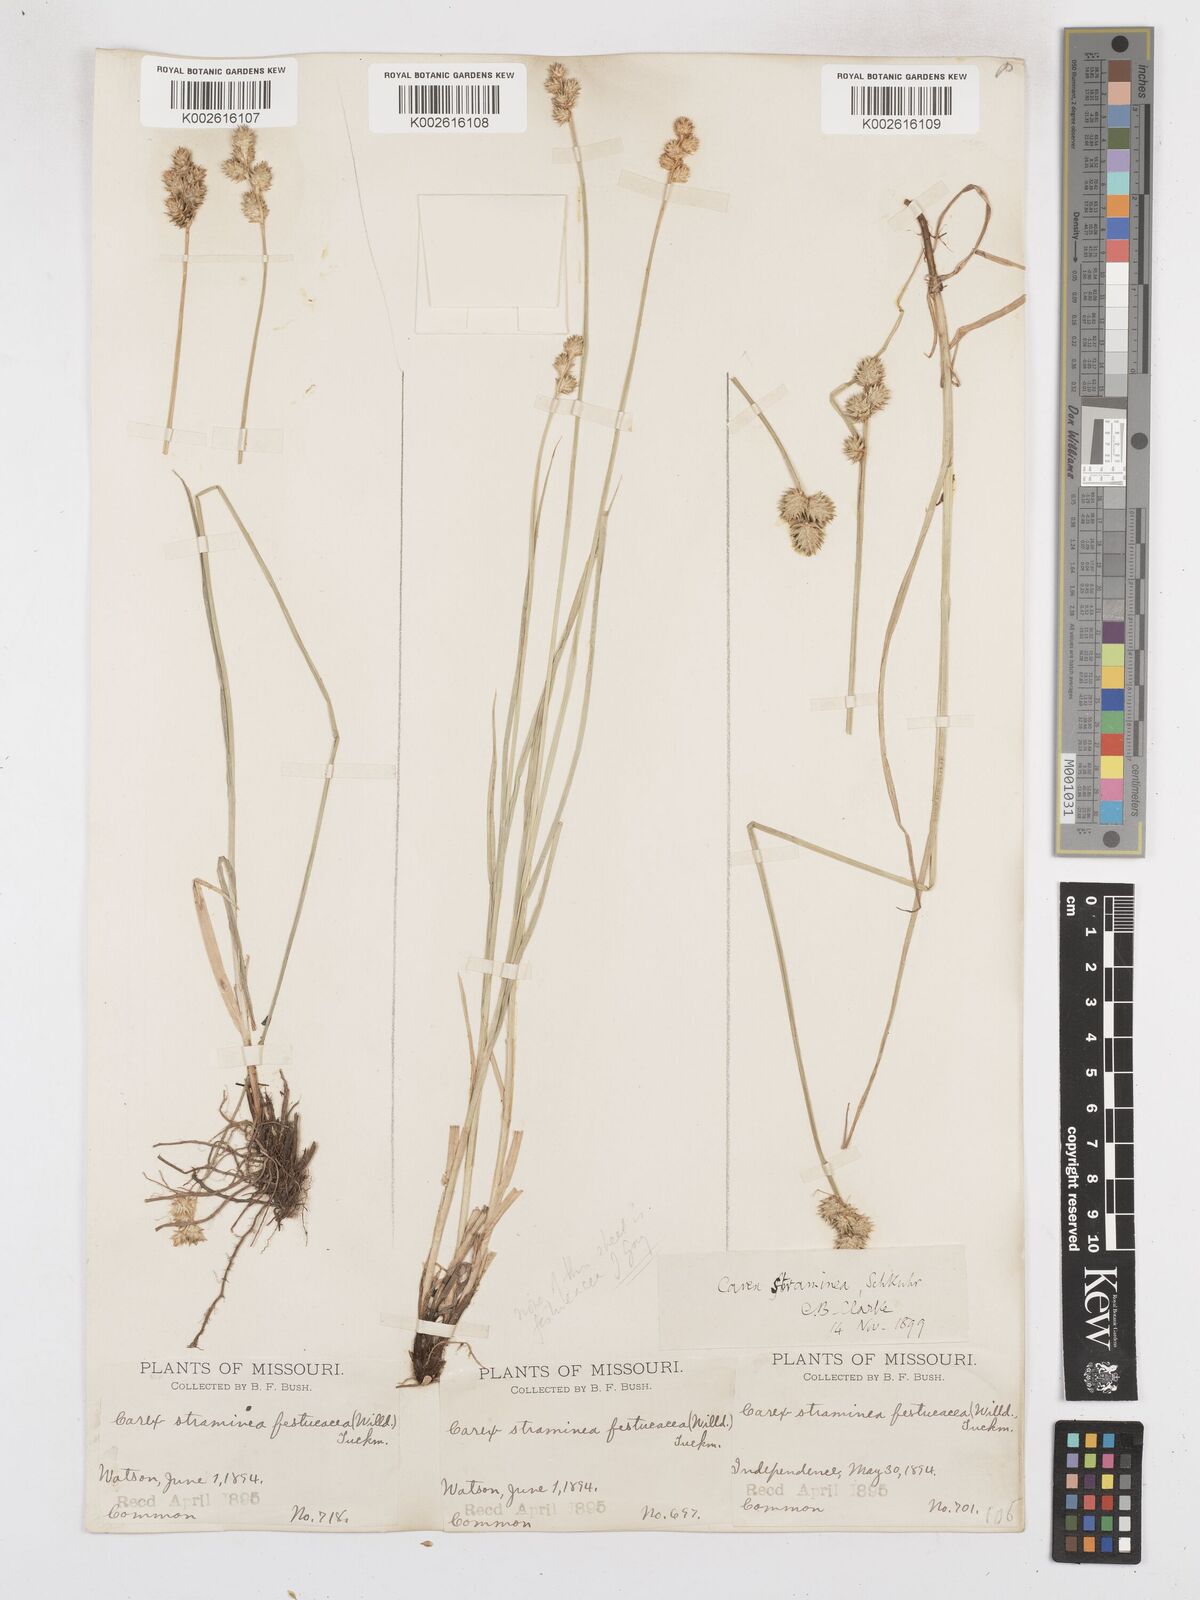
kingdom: Plantae
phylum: Tracheophyta
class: Liliopsida
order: Poales
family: Cyperaceae
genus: Carex
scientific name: Carex brevior
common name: Brevior sedge
